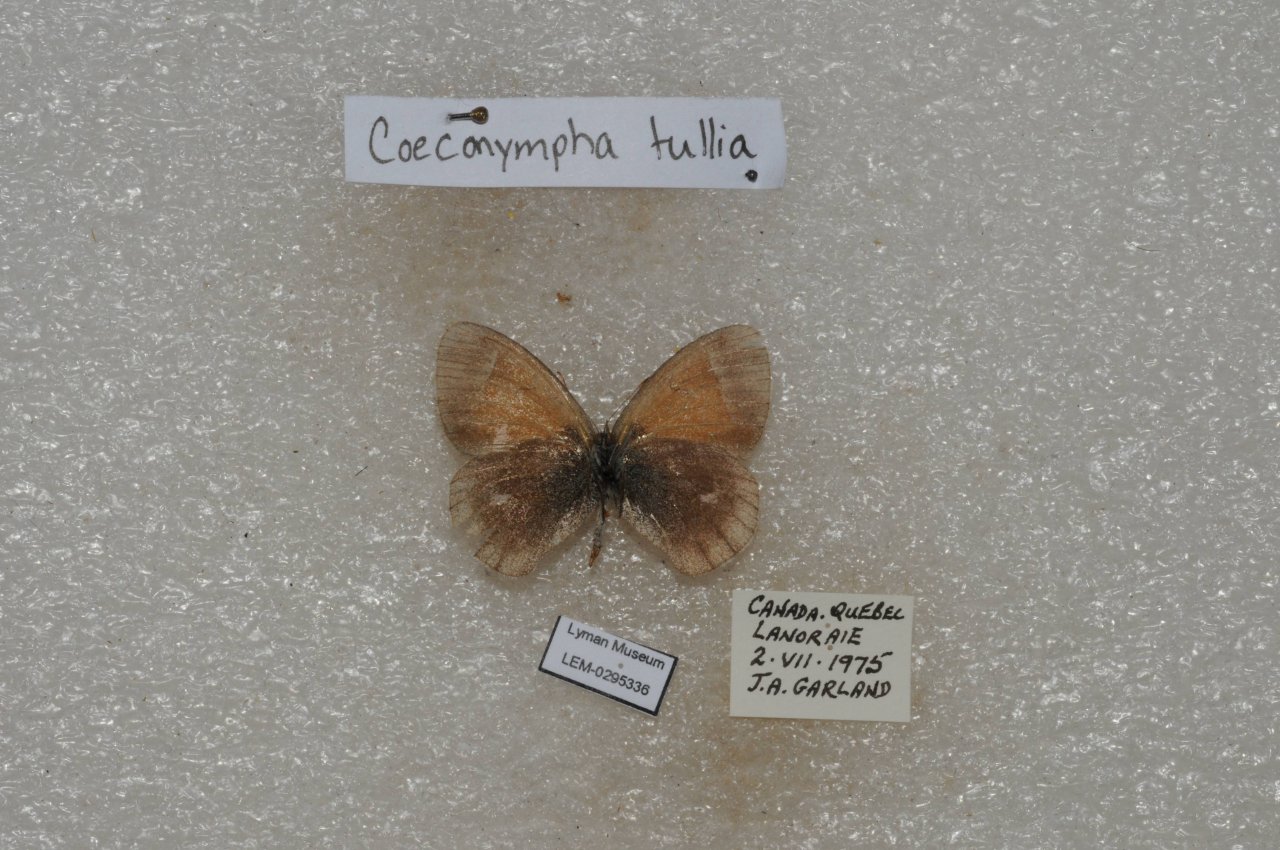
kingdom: Animalia
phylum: Arthropoda
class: Insecta
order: Lepidoptera
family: Nymphalidae
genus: Coenonympha
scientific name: Coenonympha tullia
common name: Large Heath
